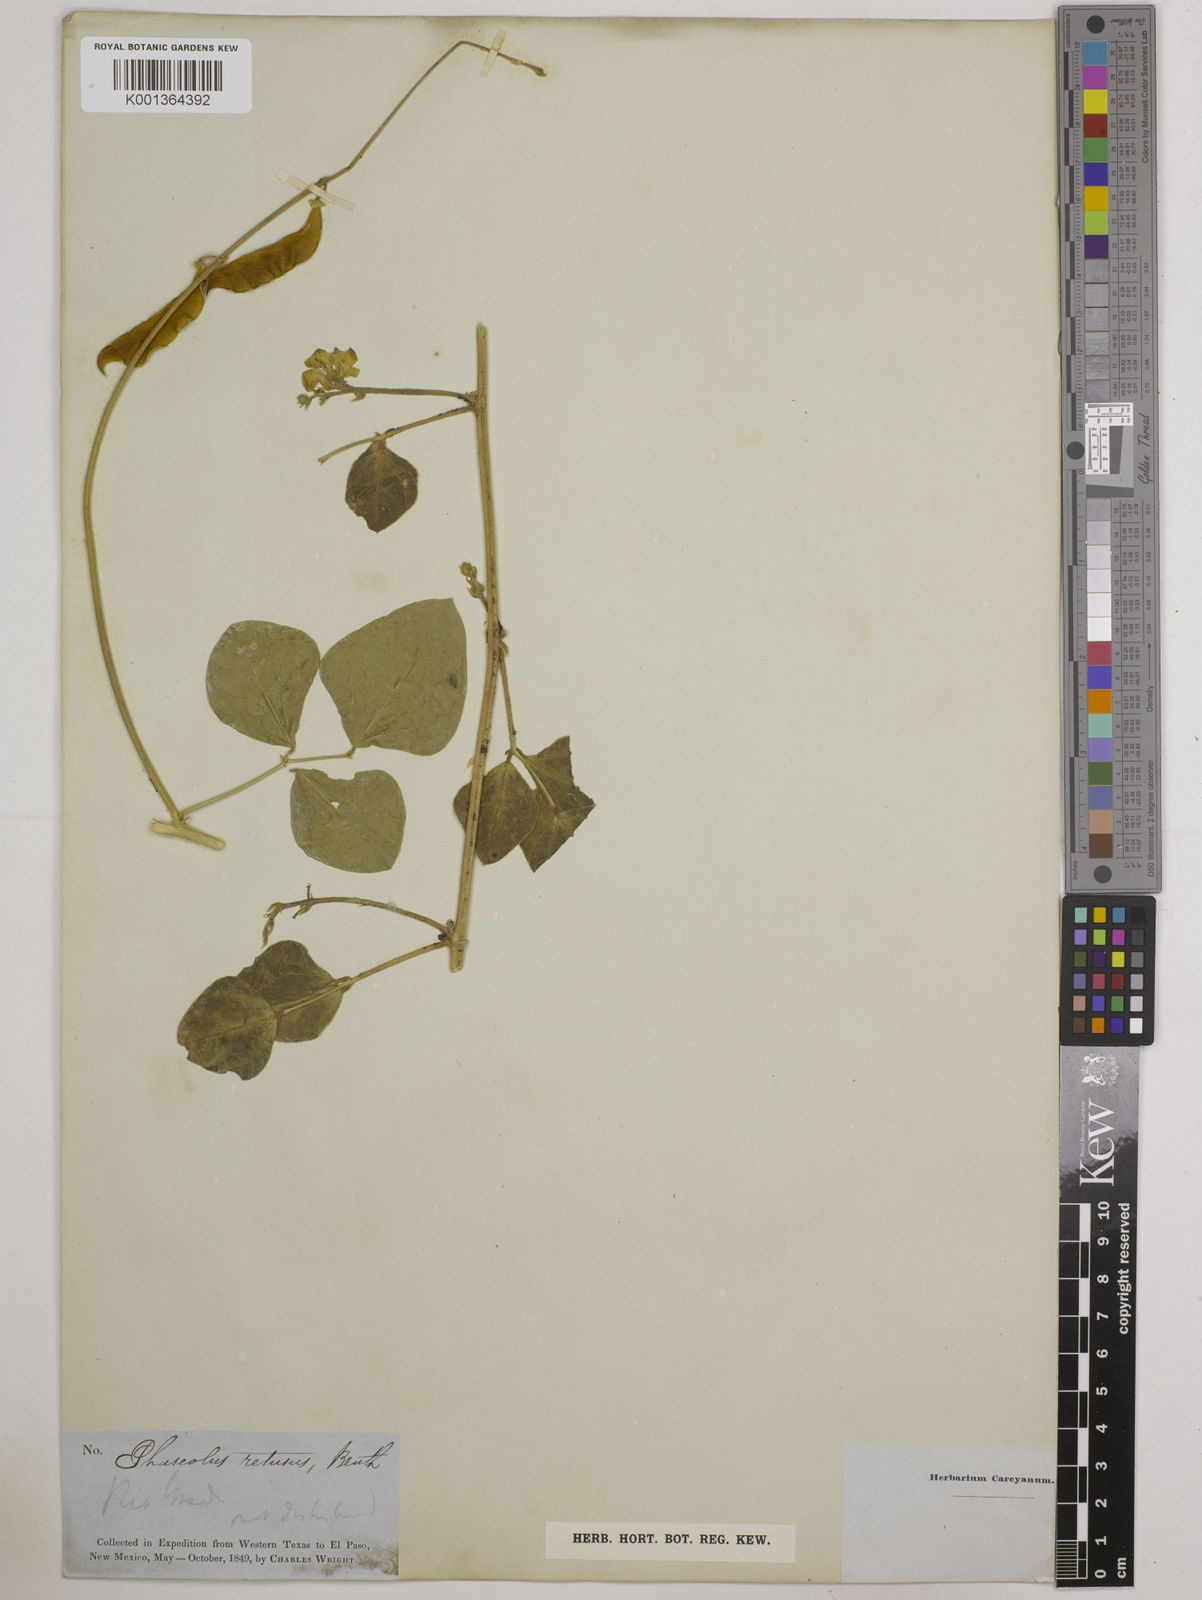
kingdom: Plantae
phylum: Tracheophyta
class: Magnoliopsida
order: Fabales
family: Fabaceae
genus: Phaseolus
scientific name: Phaseolus maculatus
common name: Metcalfe bean
